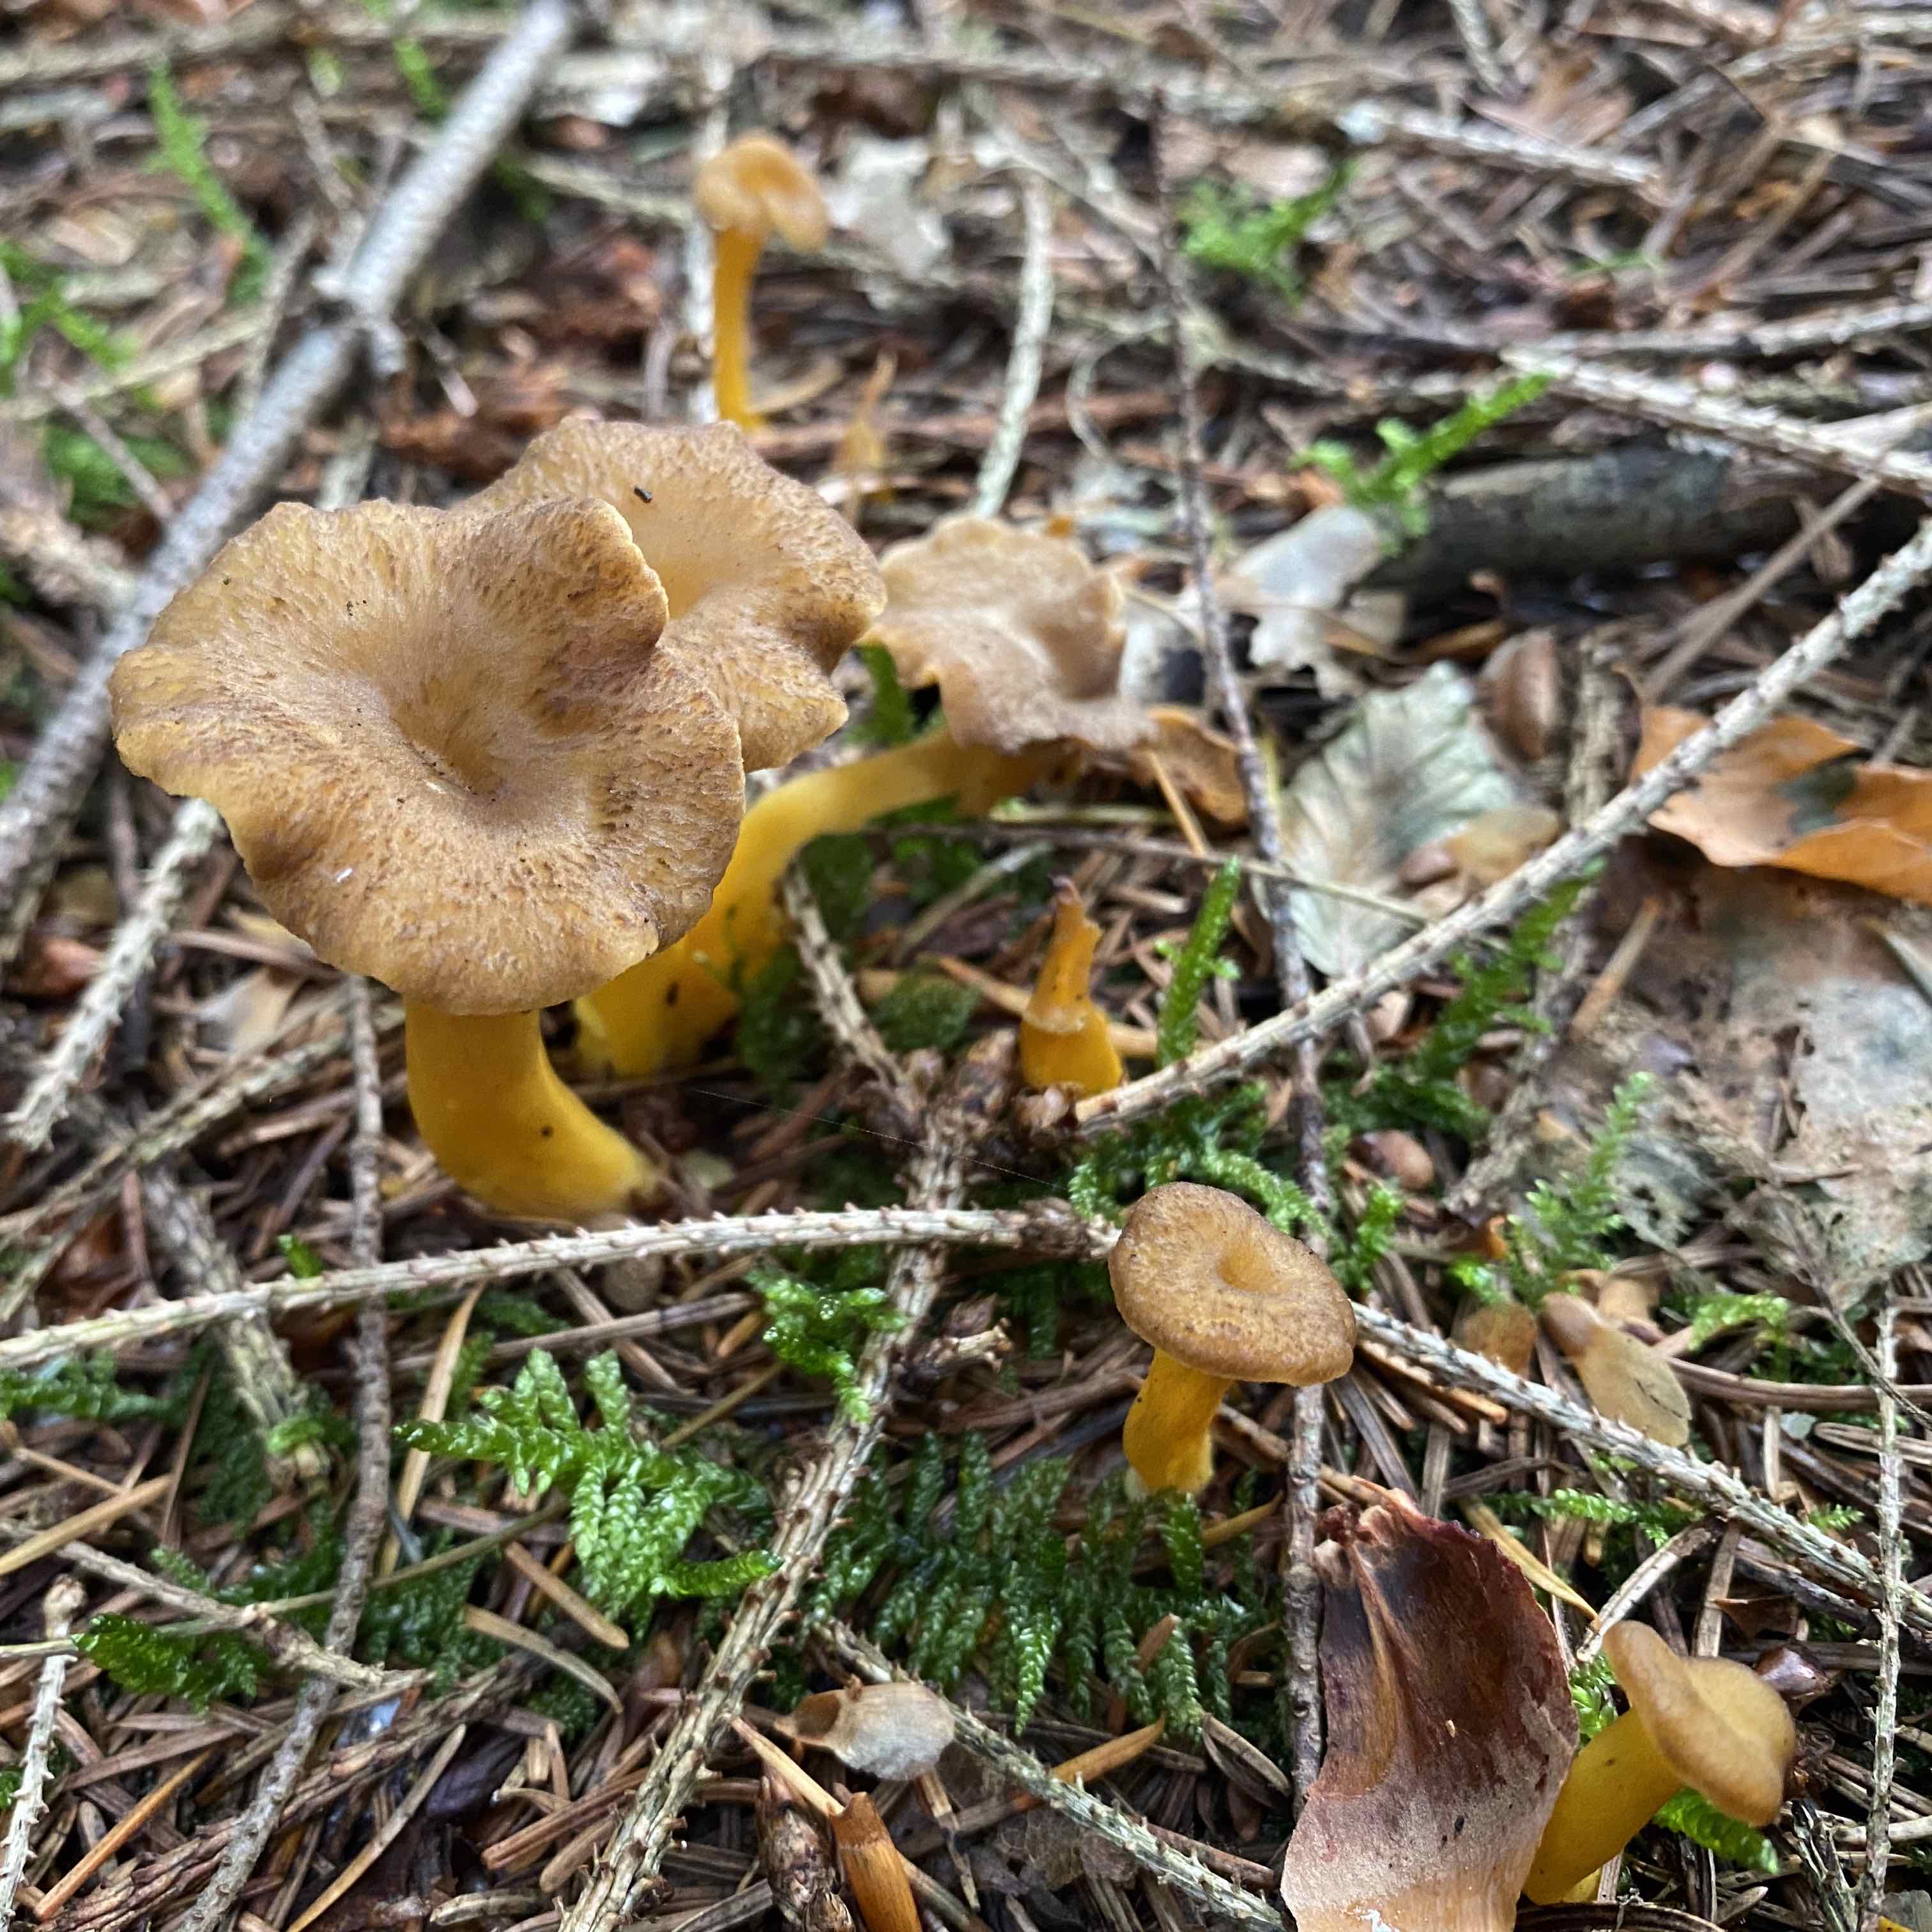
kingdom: Fungi
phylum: Basidiomycota
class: Agaricomycetes
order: Cantharellales
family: Hydnaceae
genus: Craterellus
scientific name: Craterellus tubaeformis
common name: tragt-kantarel
